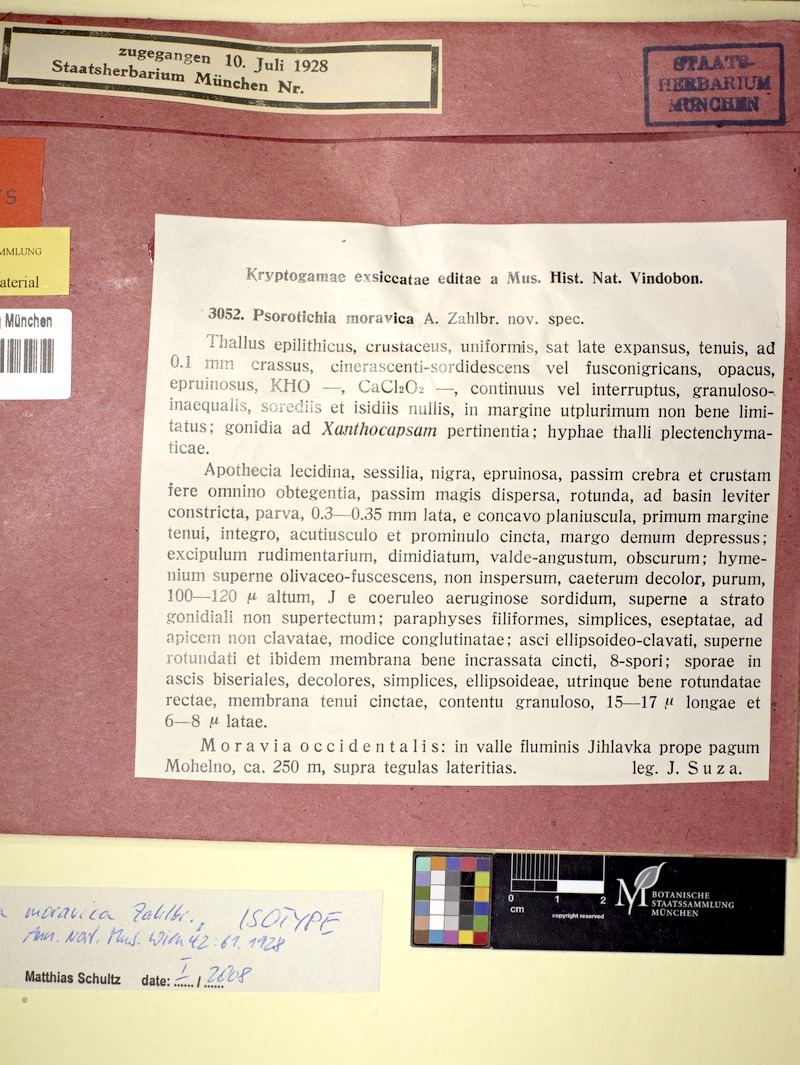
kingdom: Fungi
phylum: Ascomycota
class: Lichinomycetes
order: Lichinales
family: Lichinaceae
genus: Psorotichia
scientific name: Psorotichia moravica
